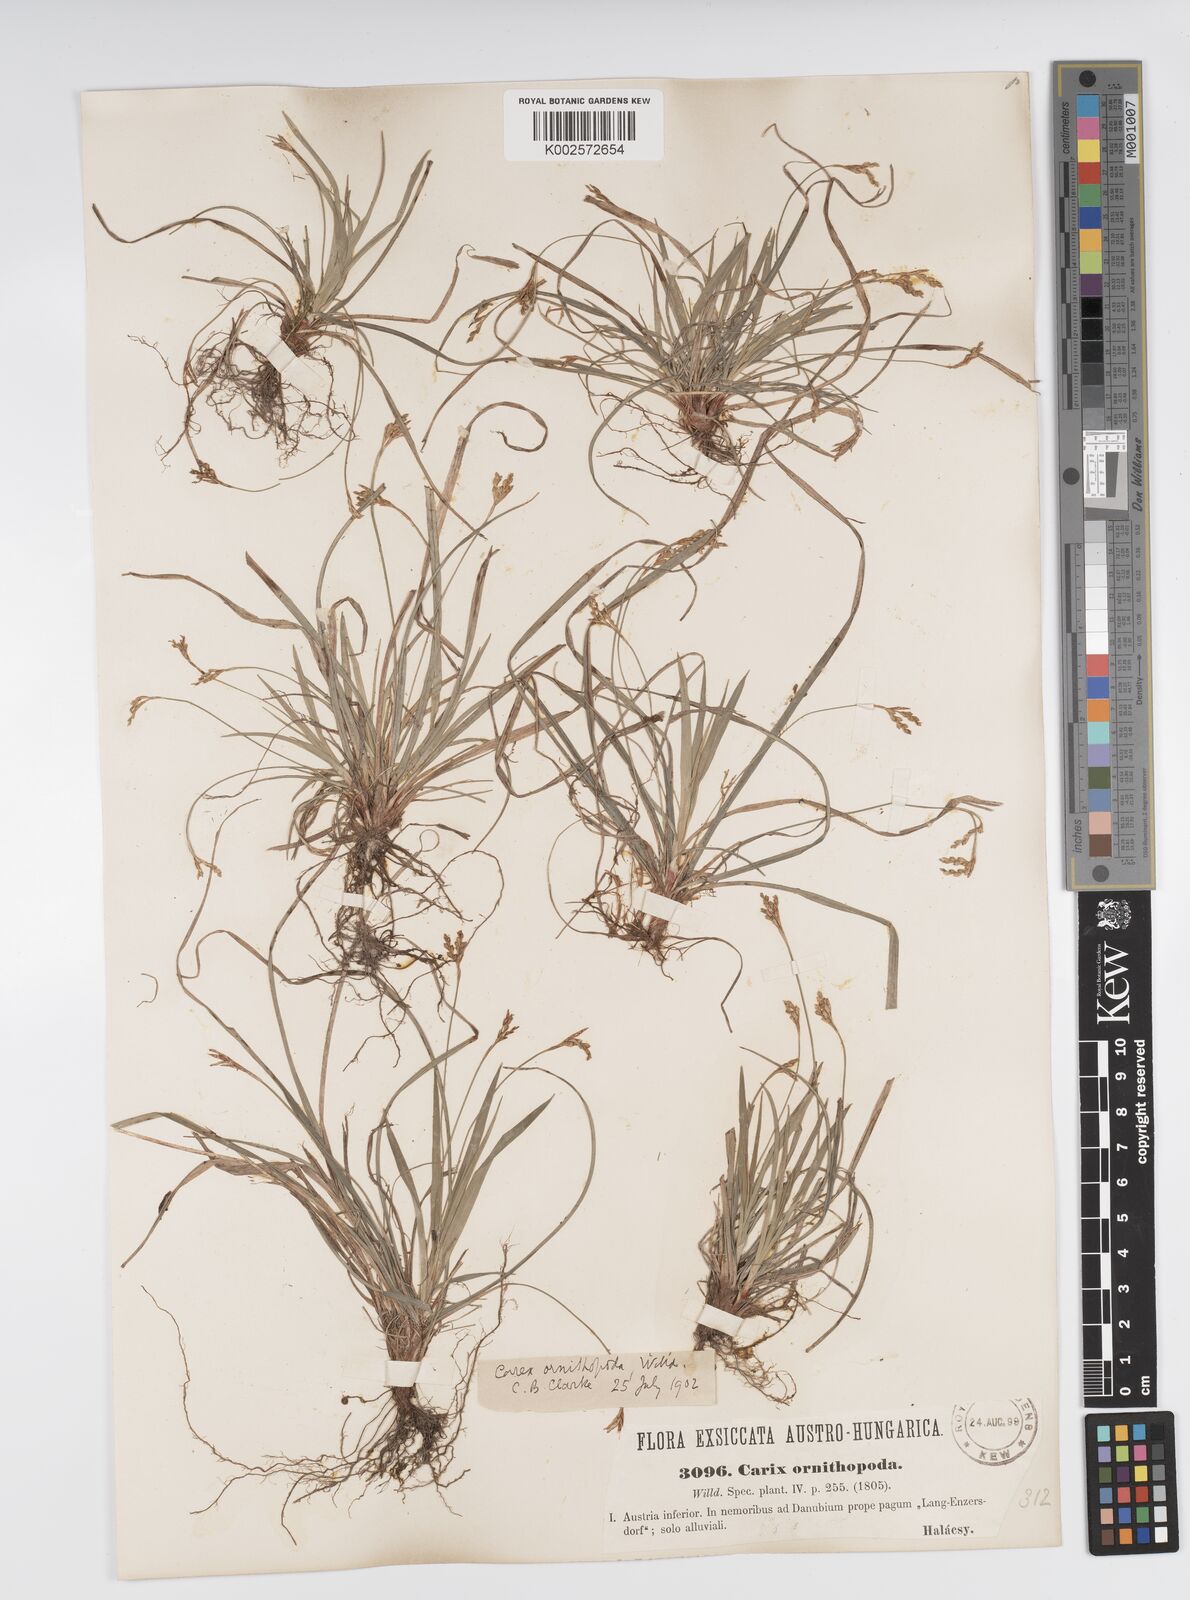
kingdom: Plantae
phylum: Tracheophyta
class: Liliopsida
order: Poales
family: Cyperaceae
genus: Carex
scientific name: Carex ornithopoda
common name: Bird's-foot sedge
